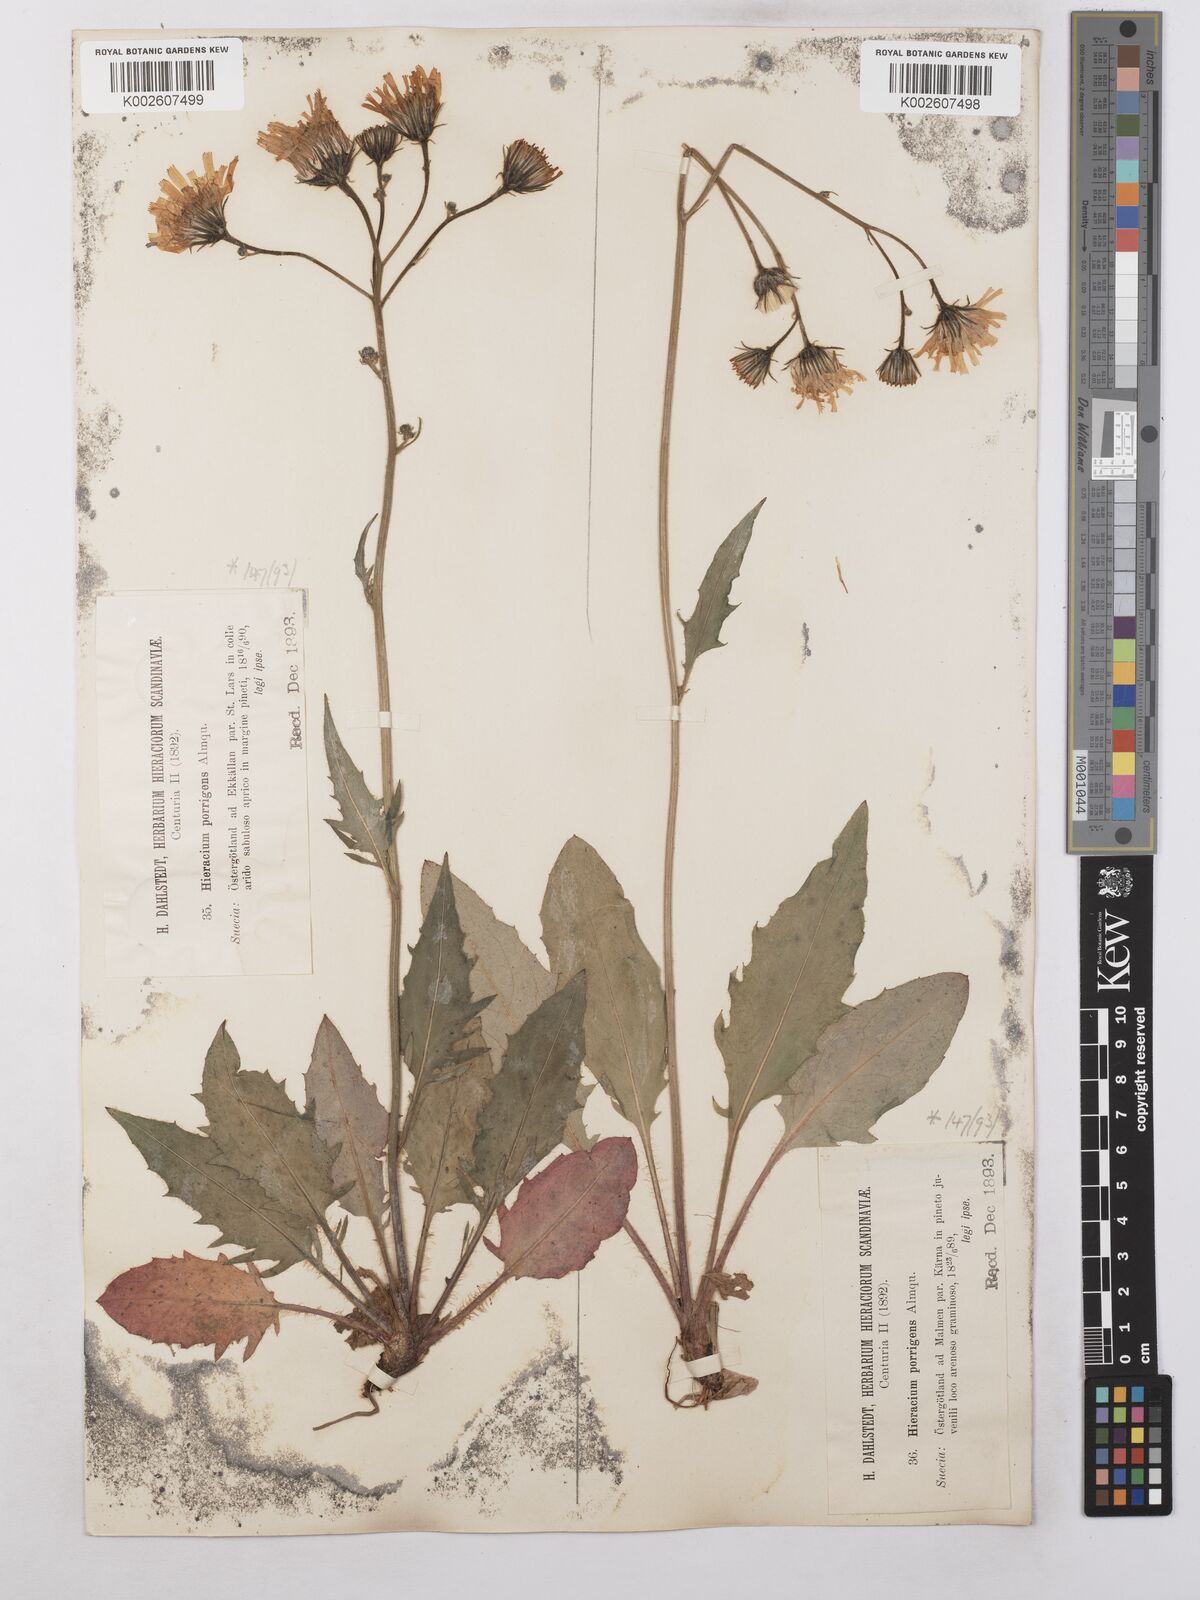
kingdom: Plantae
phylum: Tracheophyta
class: Magnoliopsida
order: Asterales
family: Asteraceae
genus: Hieracium
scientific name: Hieracium caesium
